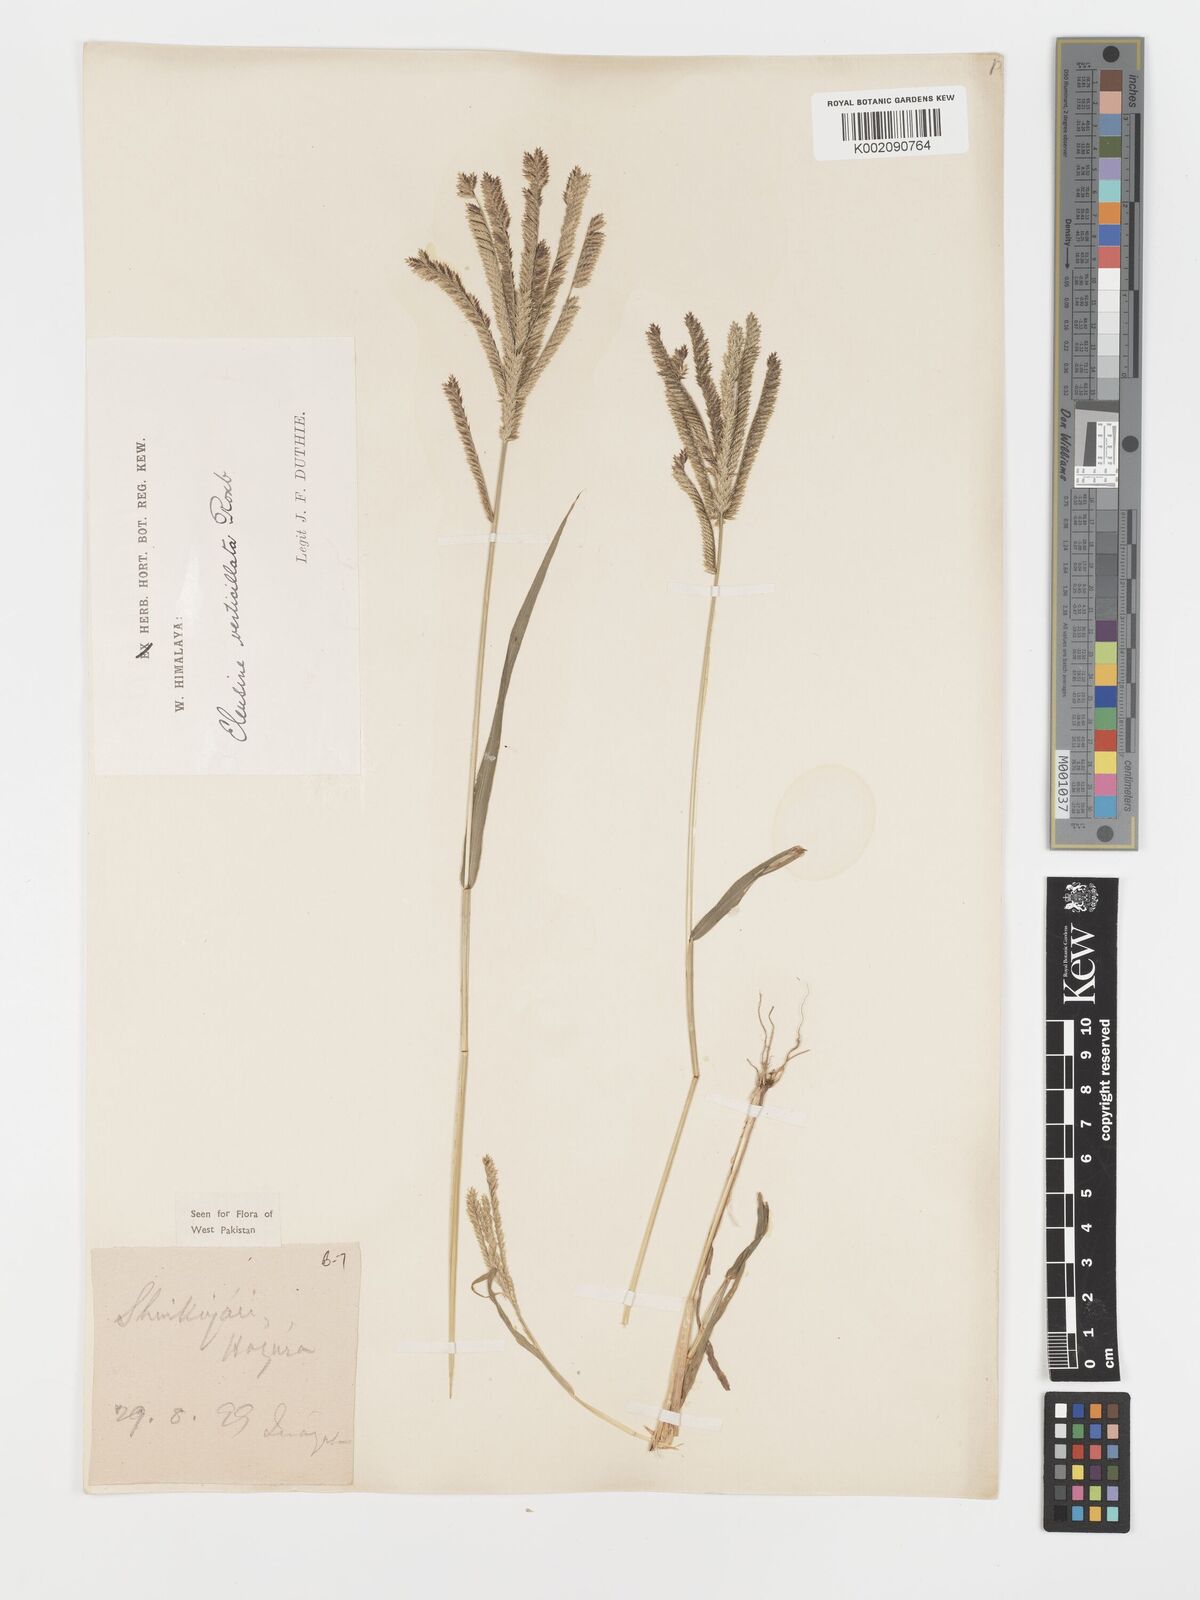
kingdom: Plantae
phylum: Tracheophyta
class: Liliopsida
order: Poales
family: Poaceae
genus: Acrachne
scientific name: Acrachne racemosa
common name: Goosegrass
